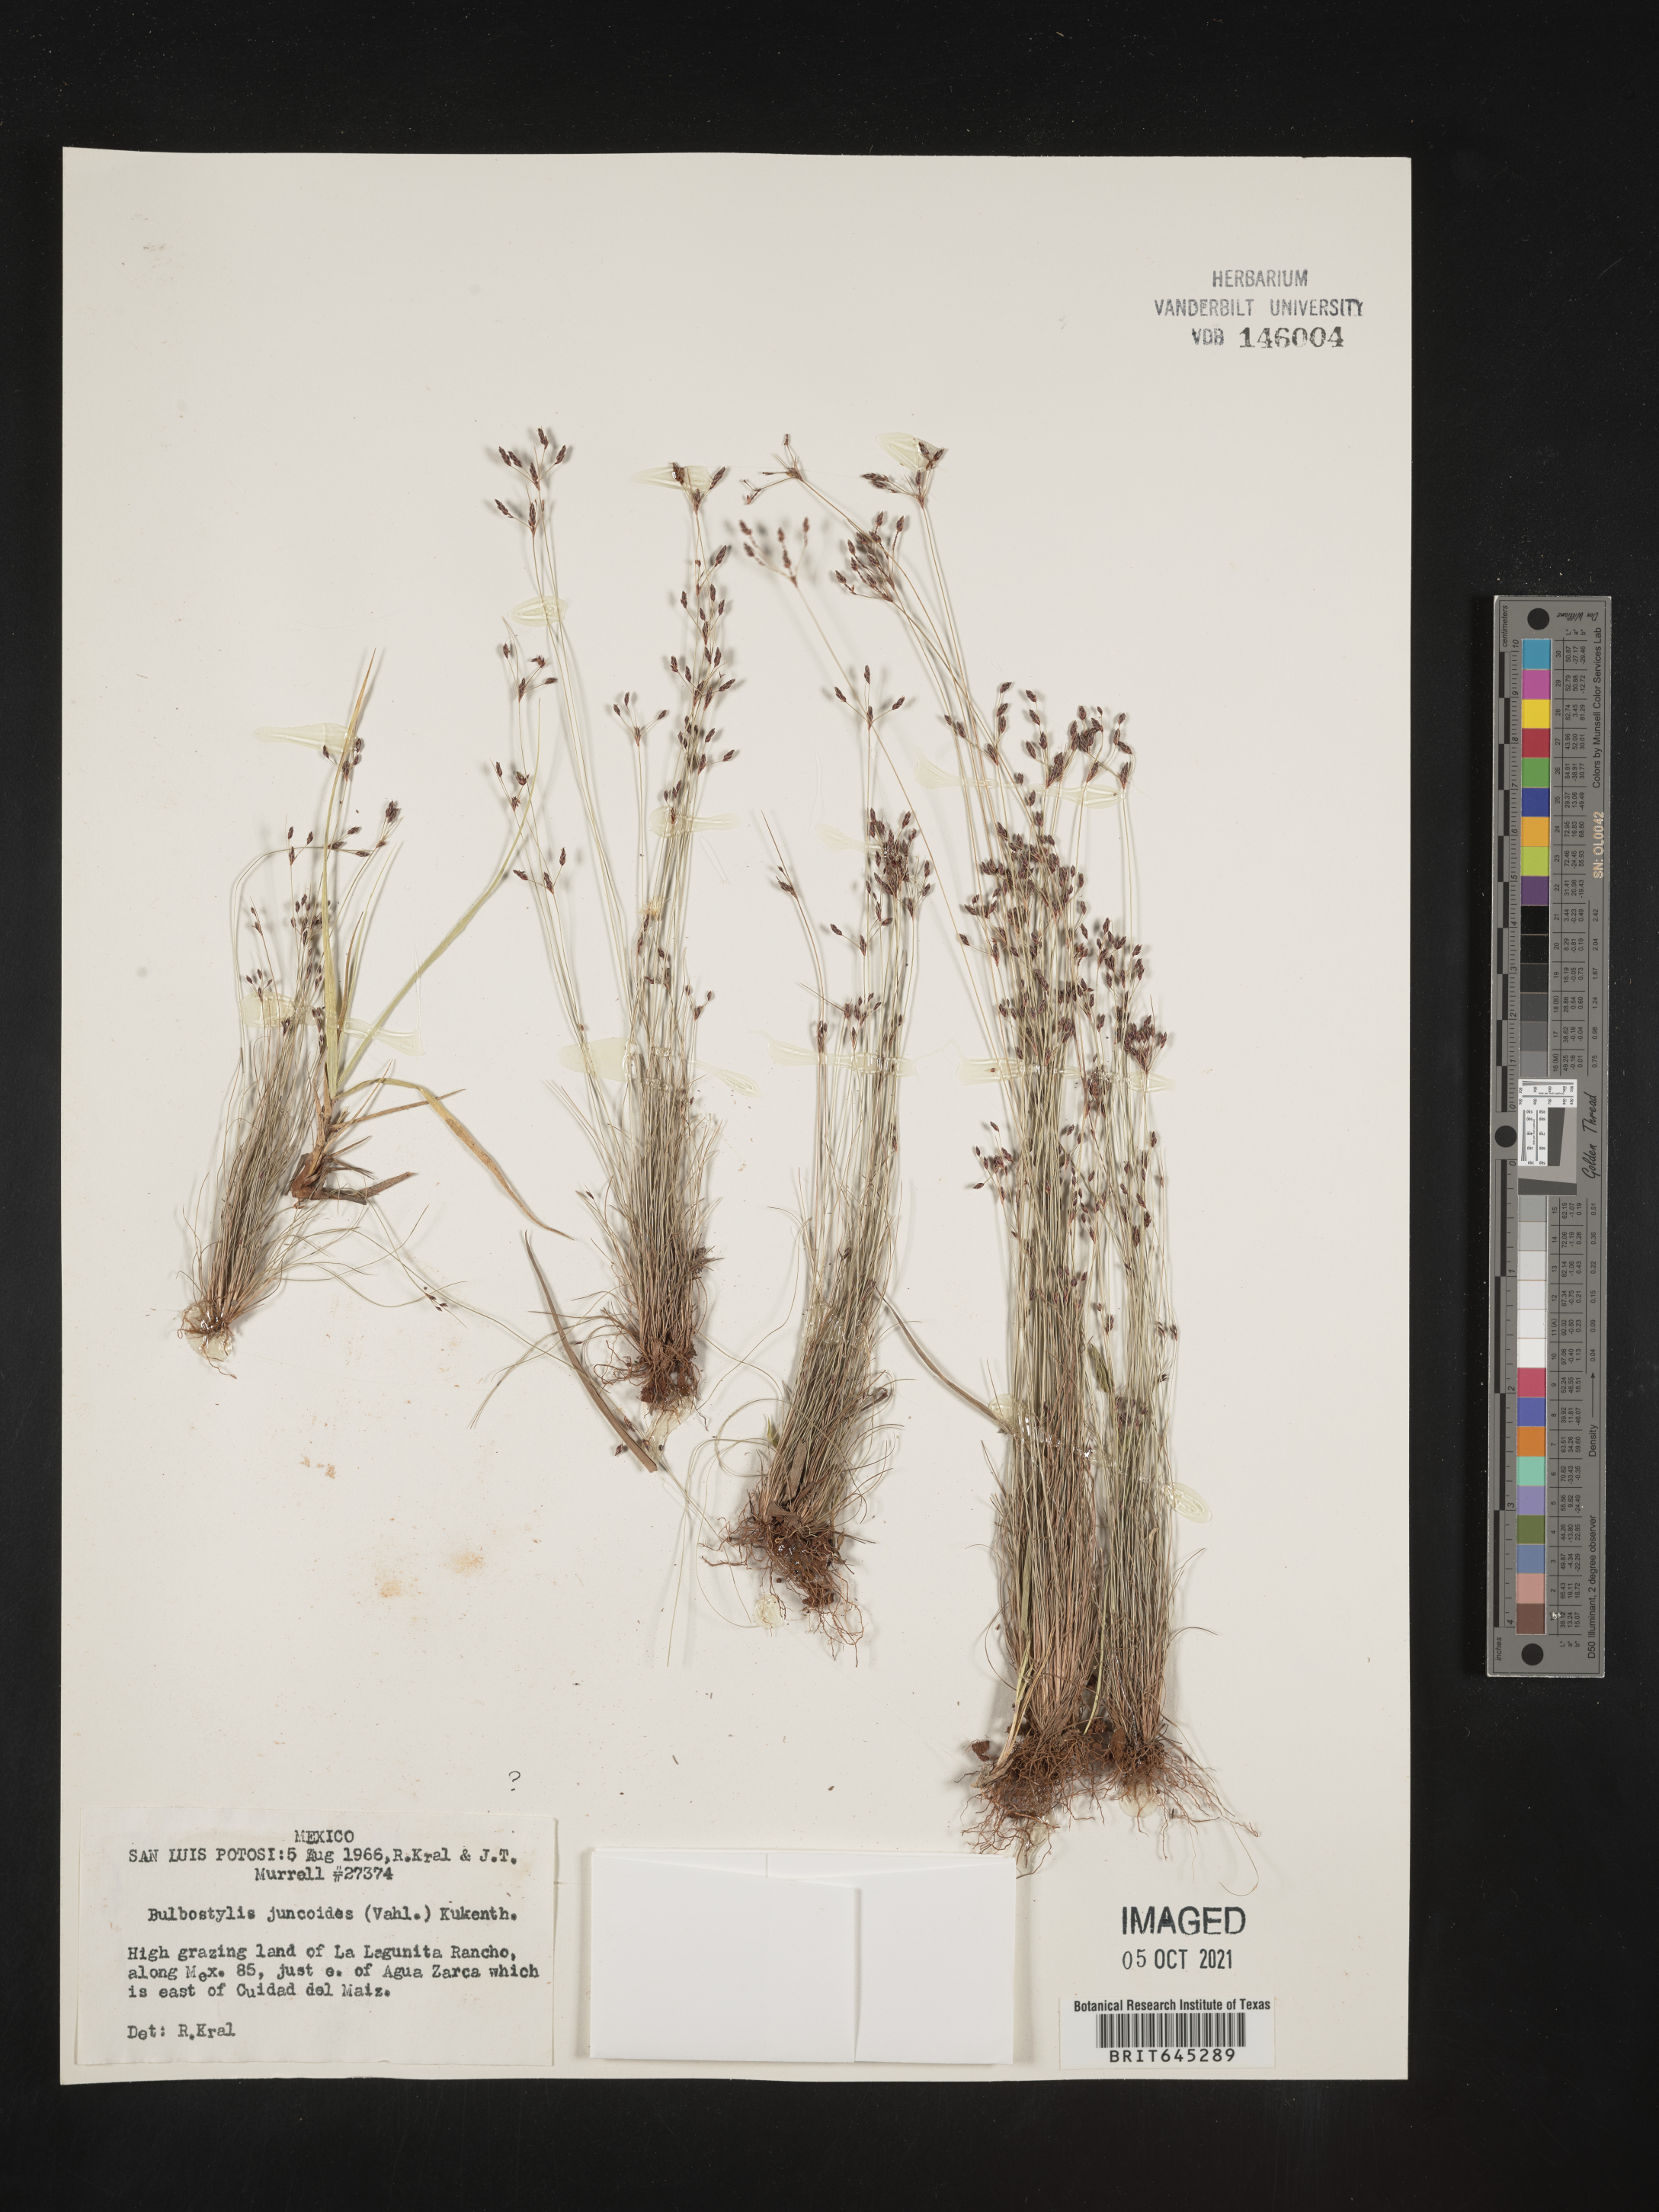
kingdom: Plantae
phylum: Tracheophyta
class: Liliopsida
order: Poales
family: Cyperaceae
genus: Bulbostylis
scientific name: Bulbostylis juncoides
